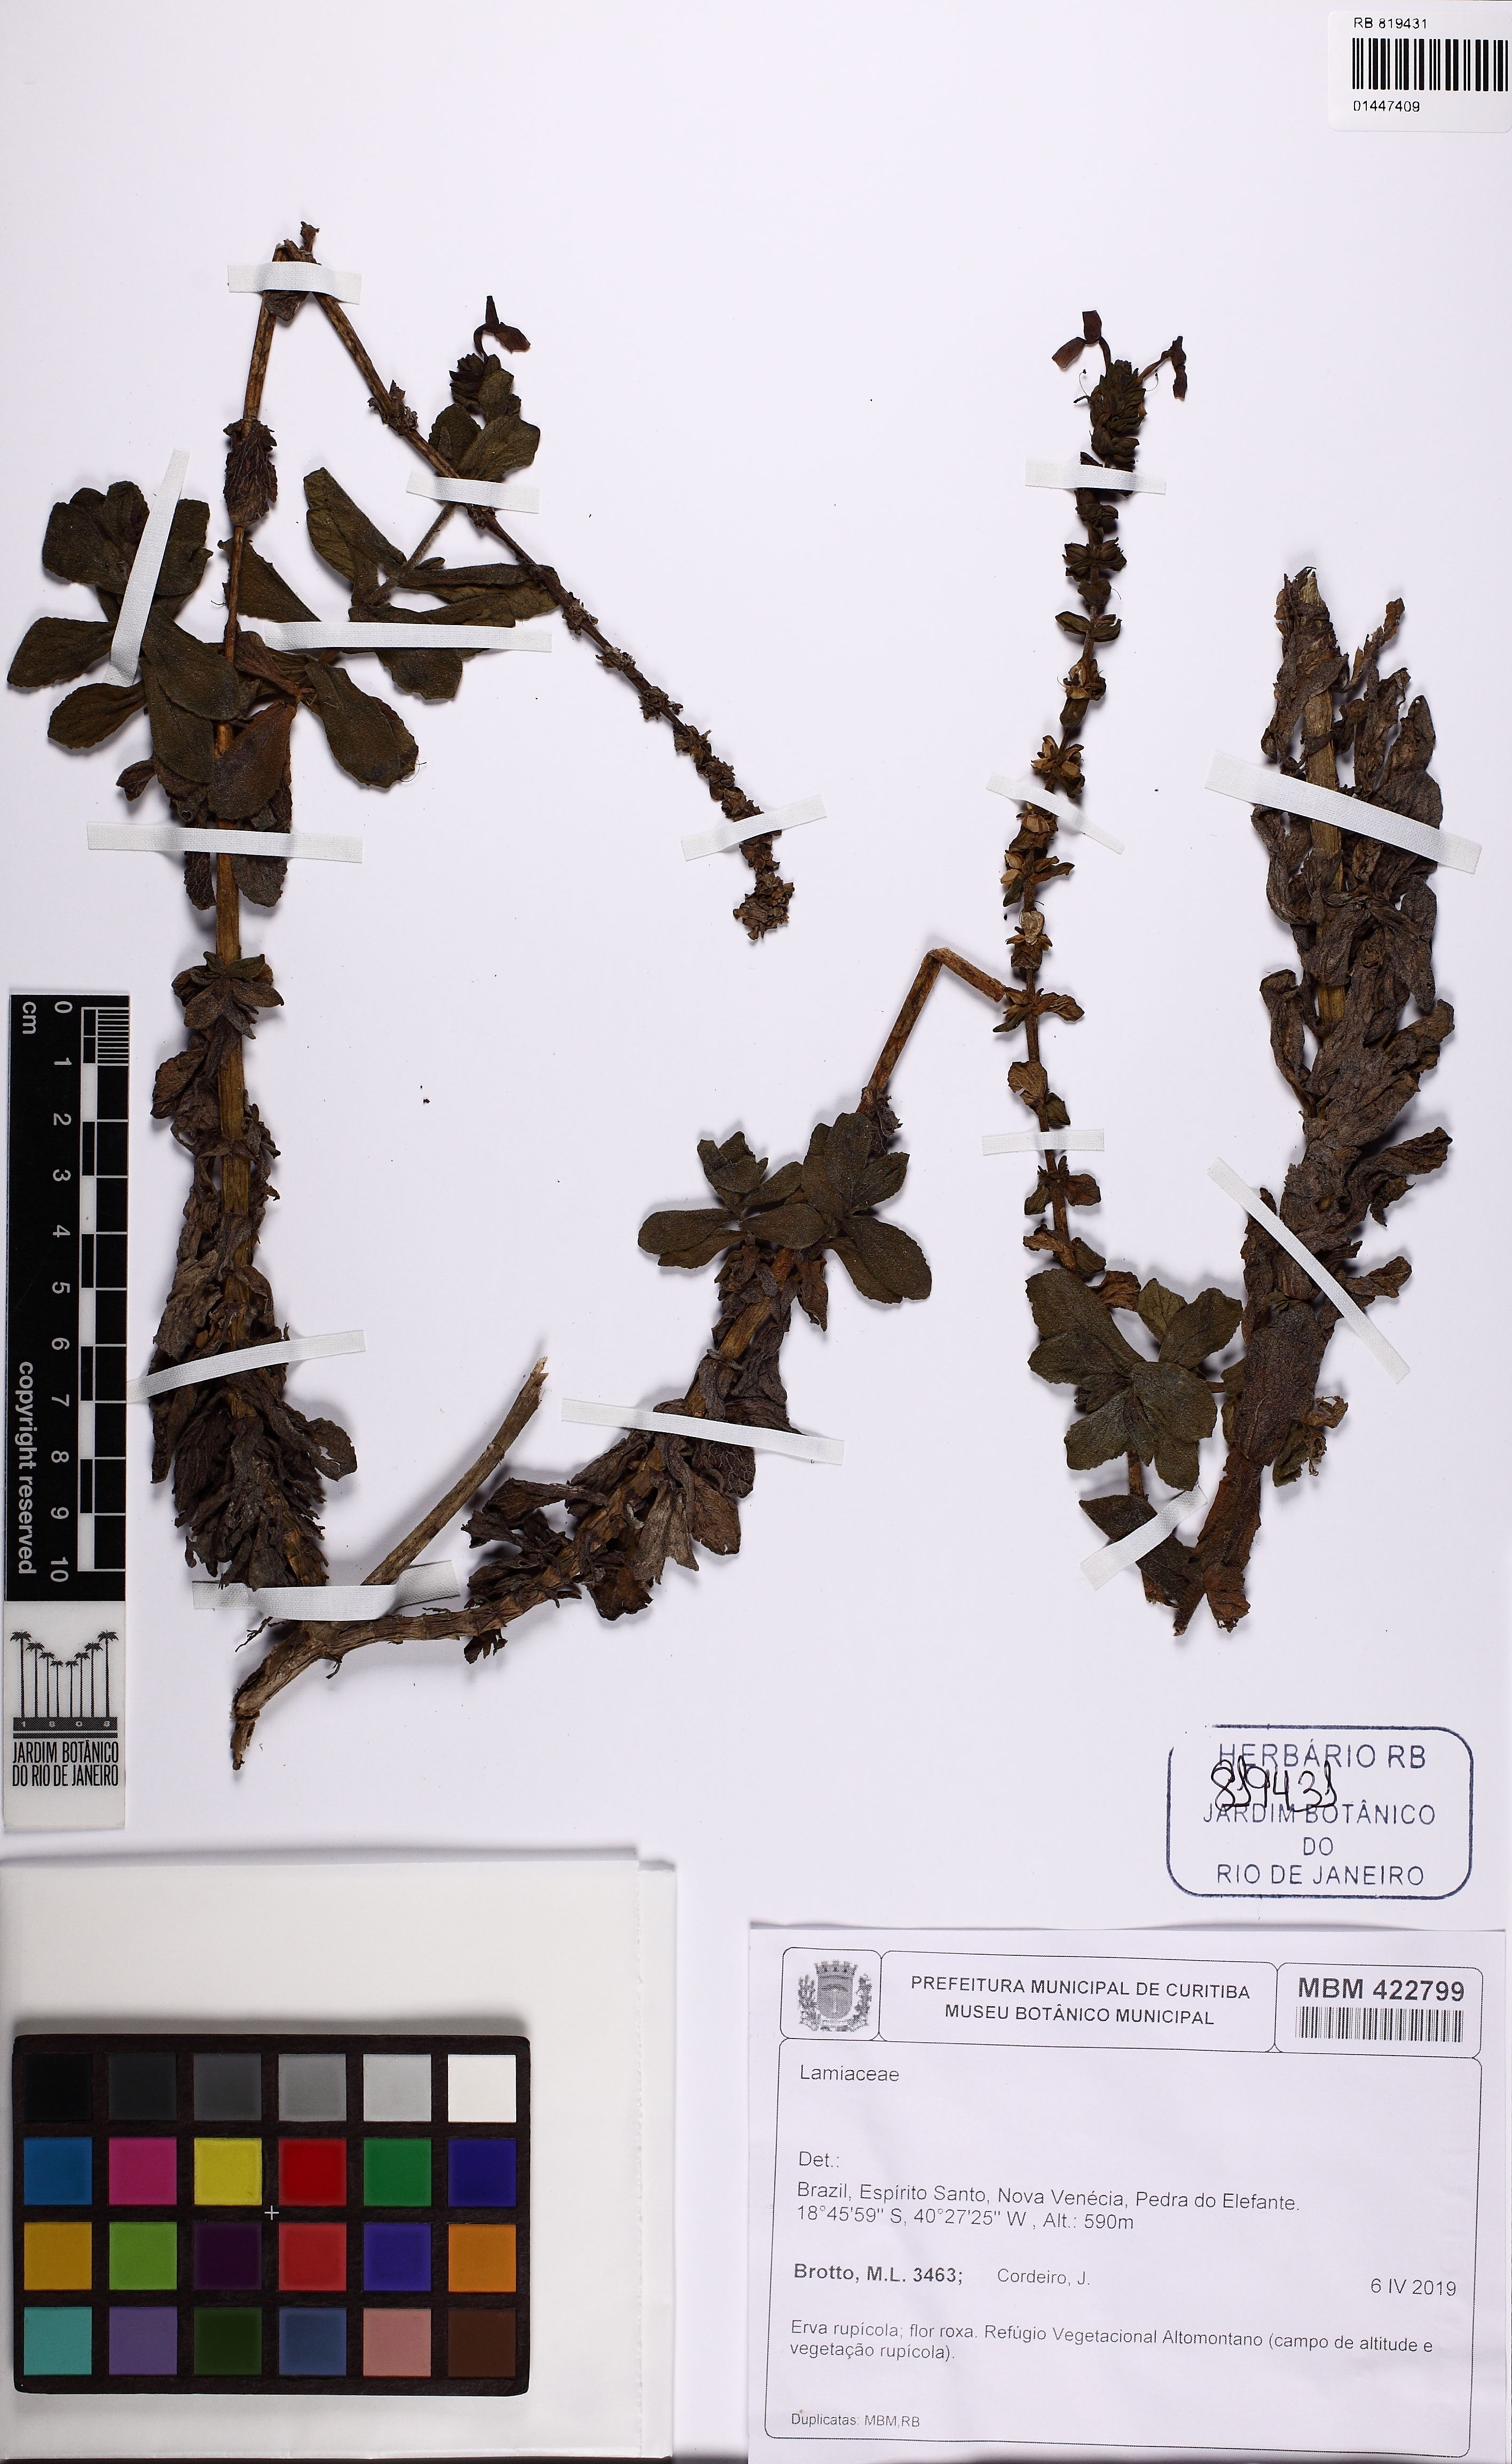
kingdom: Plantae
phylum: Tracheophyta
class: Magnoliopsida
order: Lamiales
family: Plantaginaceae
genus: Matourea
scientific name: Matourea crenata
